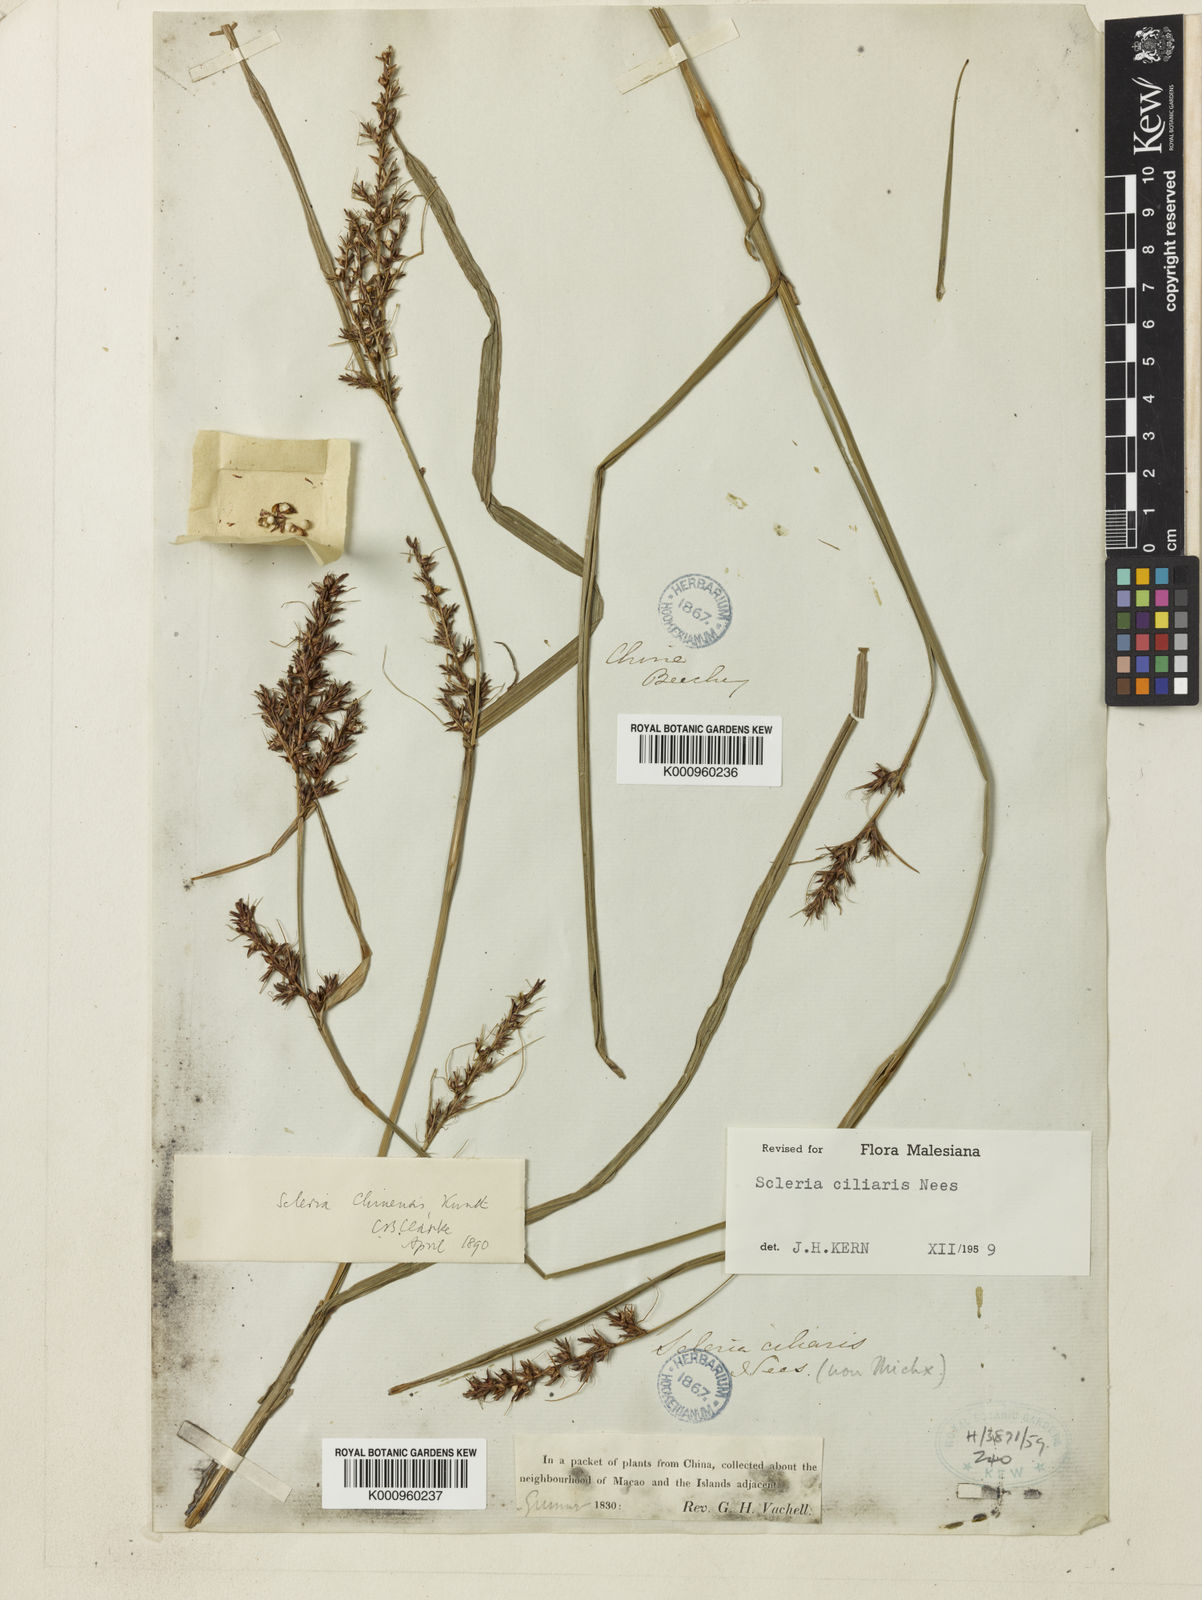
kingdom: Plantae
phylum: Tracheophyta
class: Liliopsida
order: Poales
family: Cyperaceae
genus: Scleria
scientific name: Scleria ciliaris
